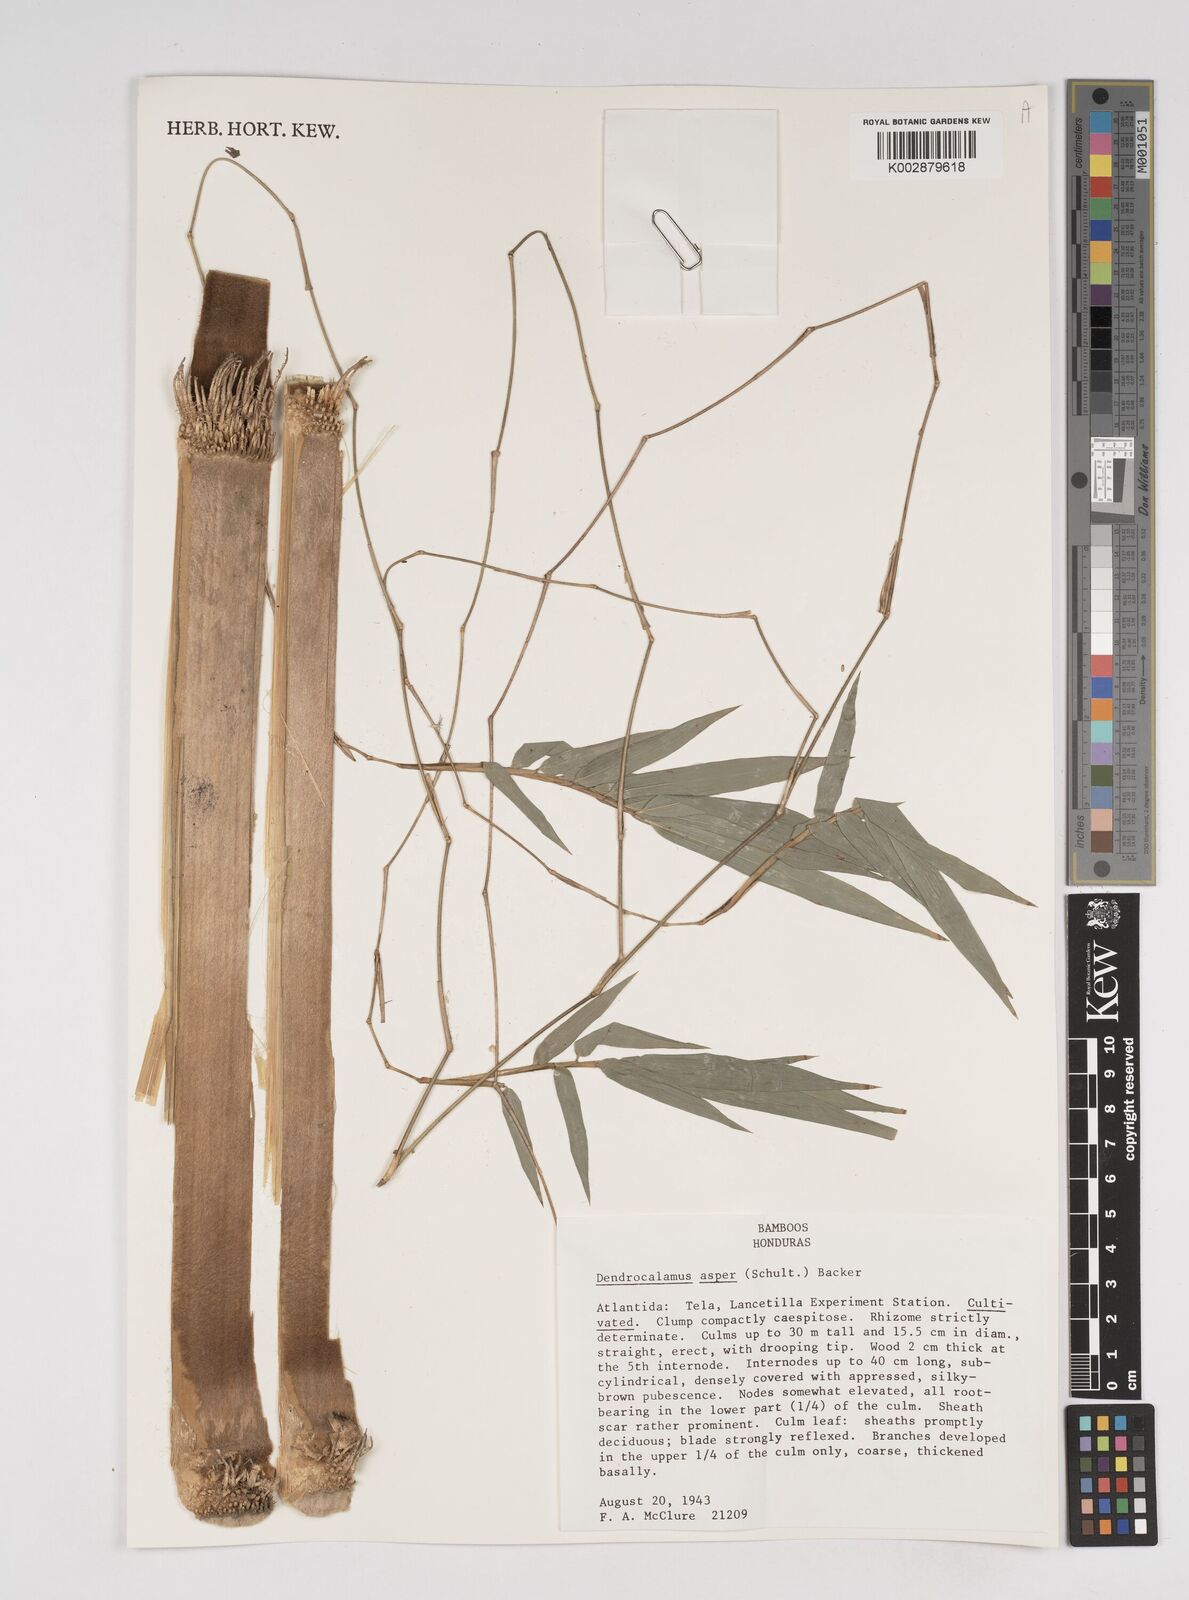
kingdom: Plantae
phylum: Tracheophyta
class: Liliopsida
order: Poales
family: Poaceae
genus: Dendrocalamus
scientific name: Dendrocalamus asper
